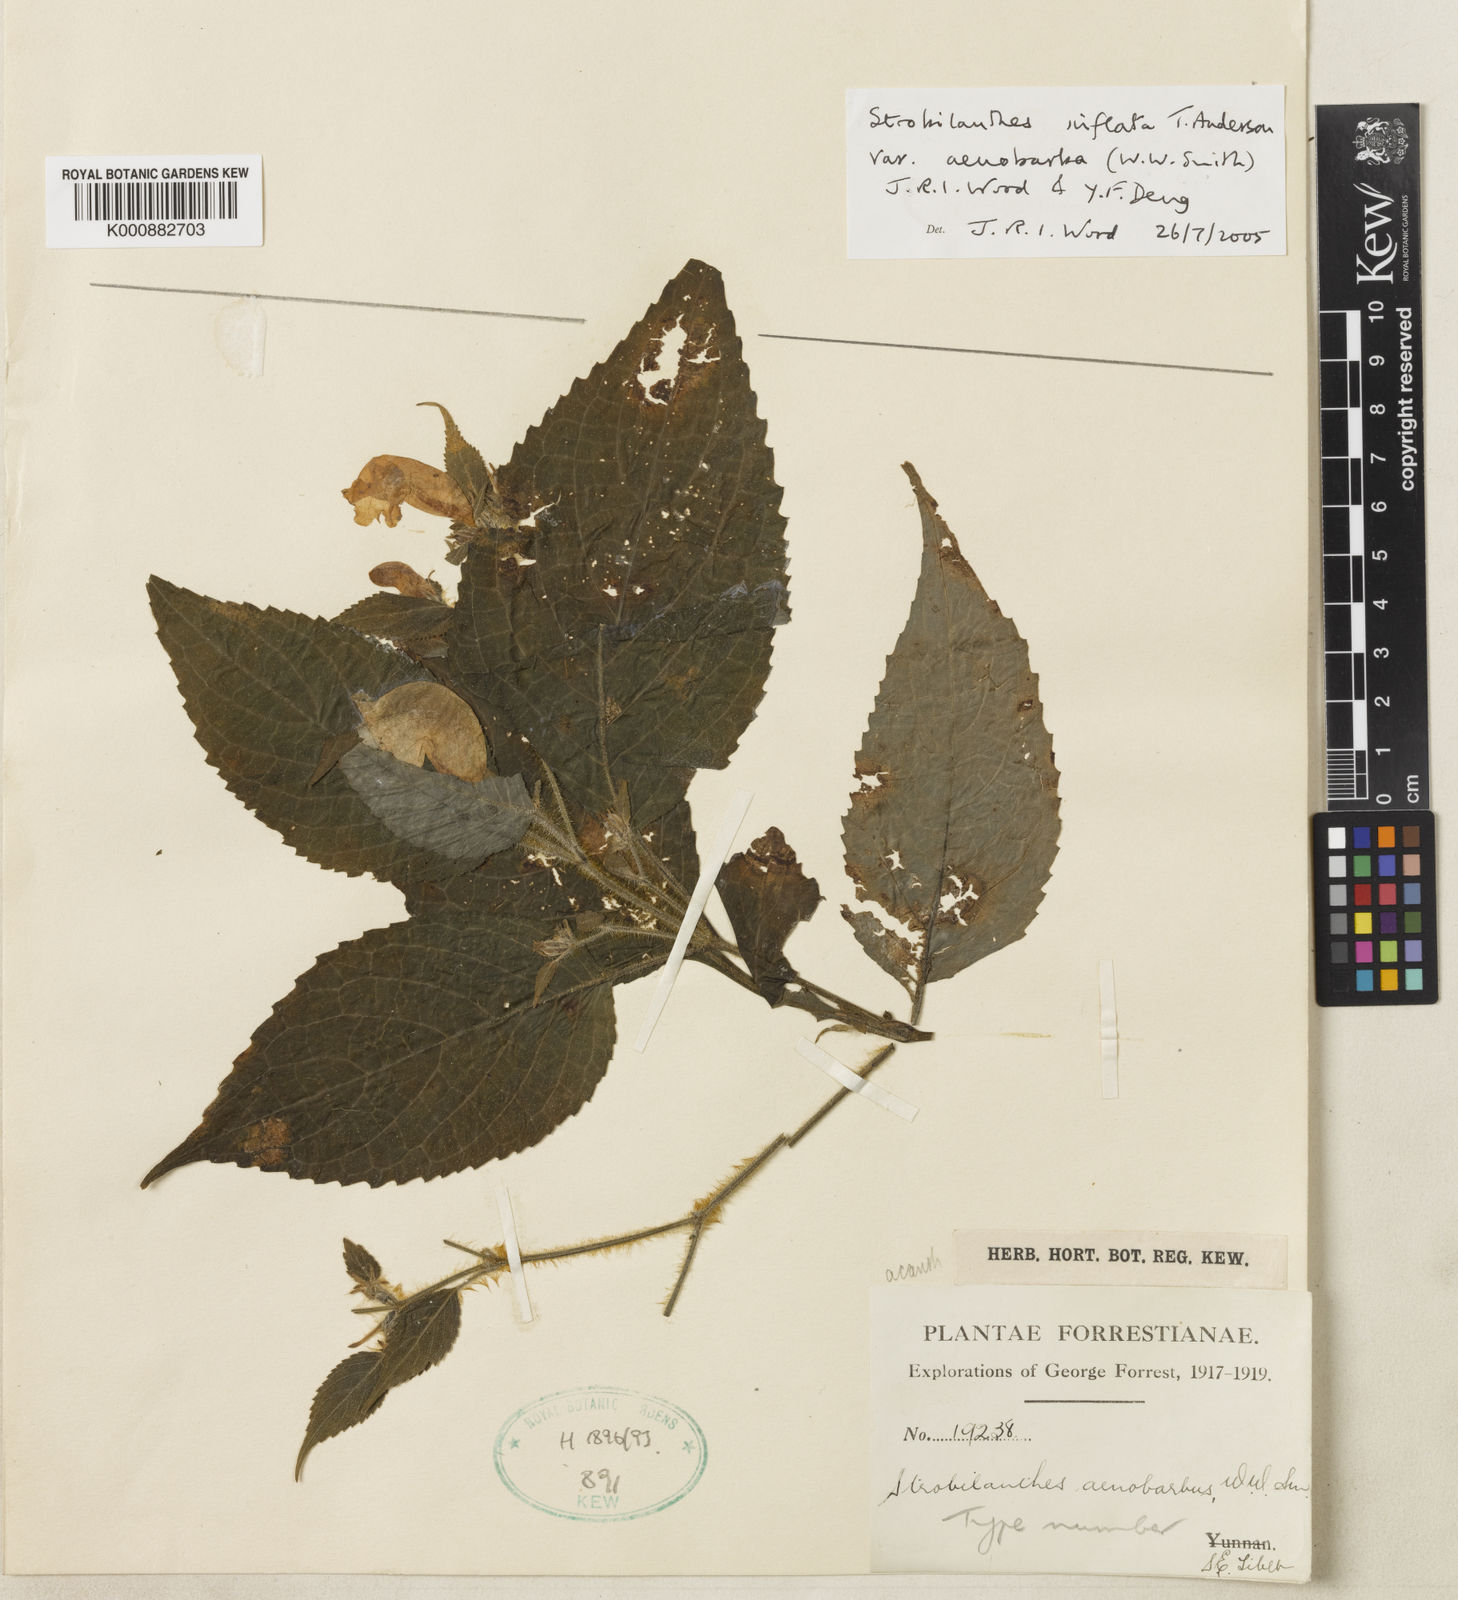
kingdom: Plantae
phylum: Tracheophyta
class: Magnoliopsida
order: Lamiales
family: Acanthaceae
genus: Strobilanthes
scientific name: Strobilanthes inflata
